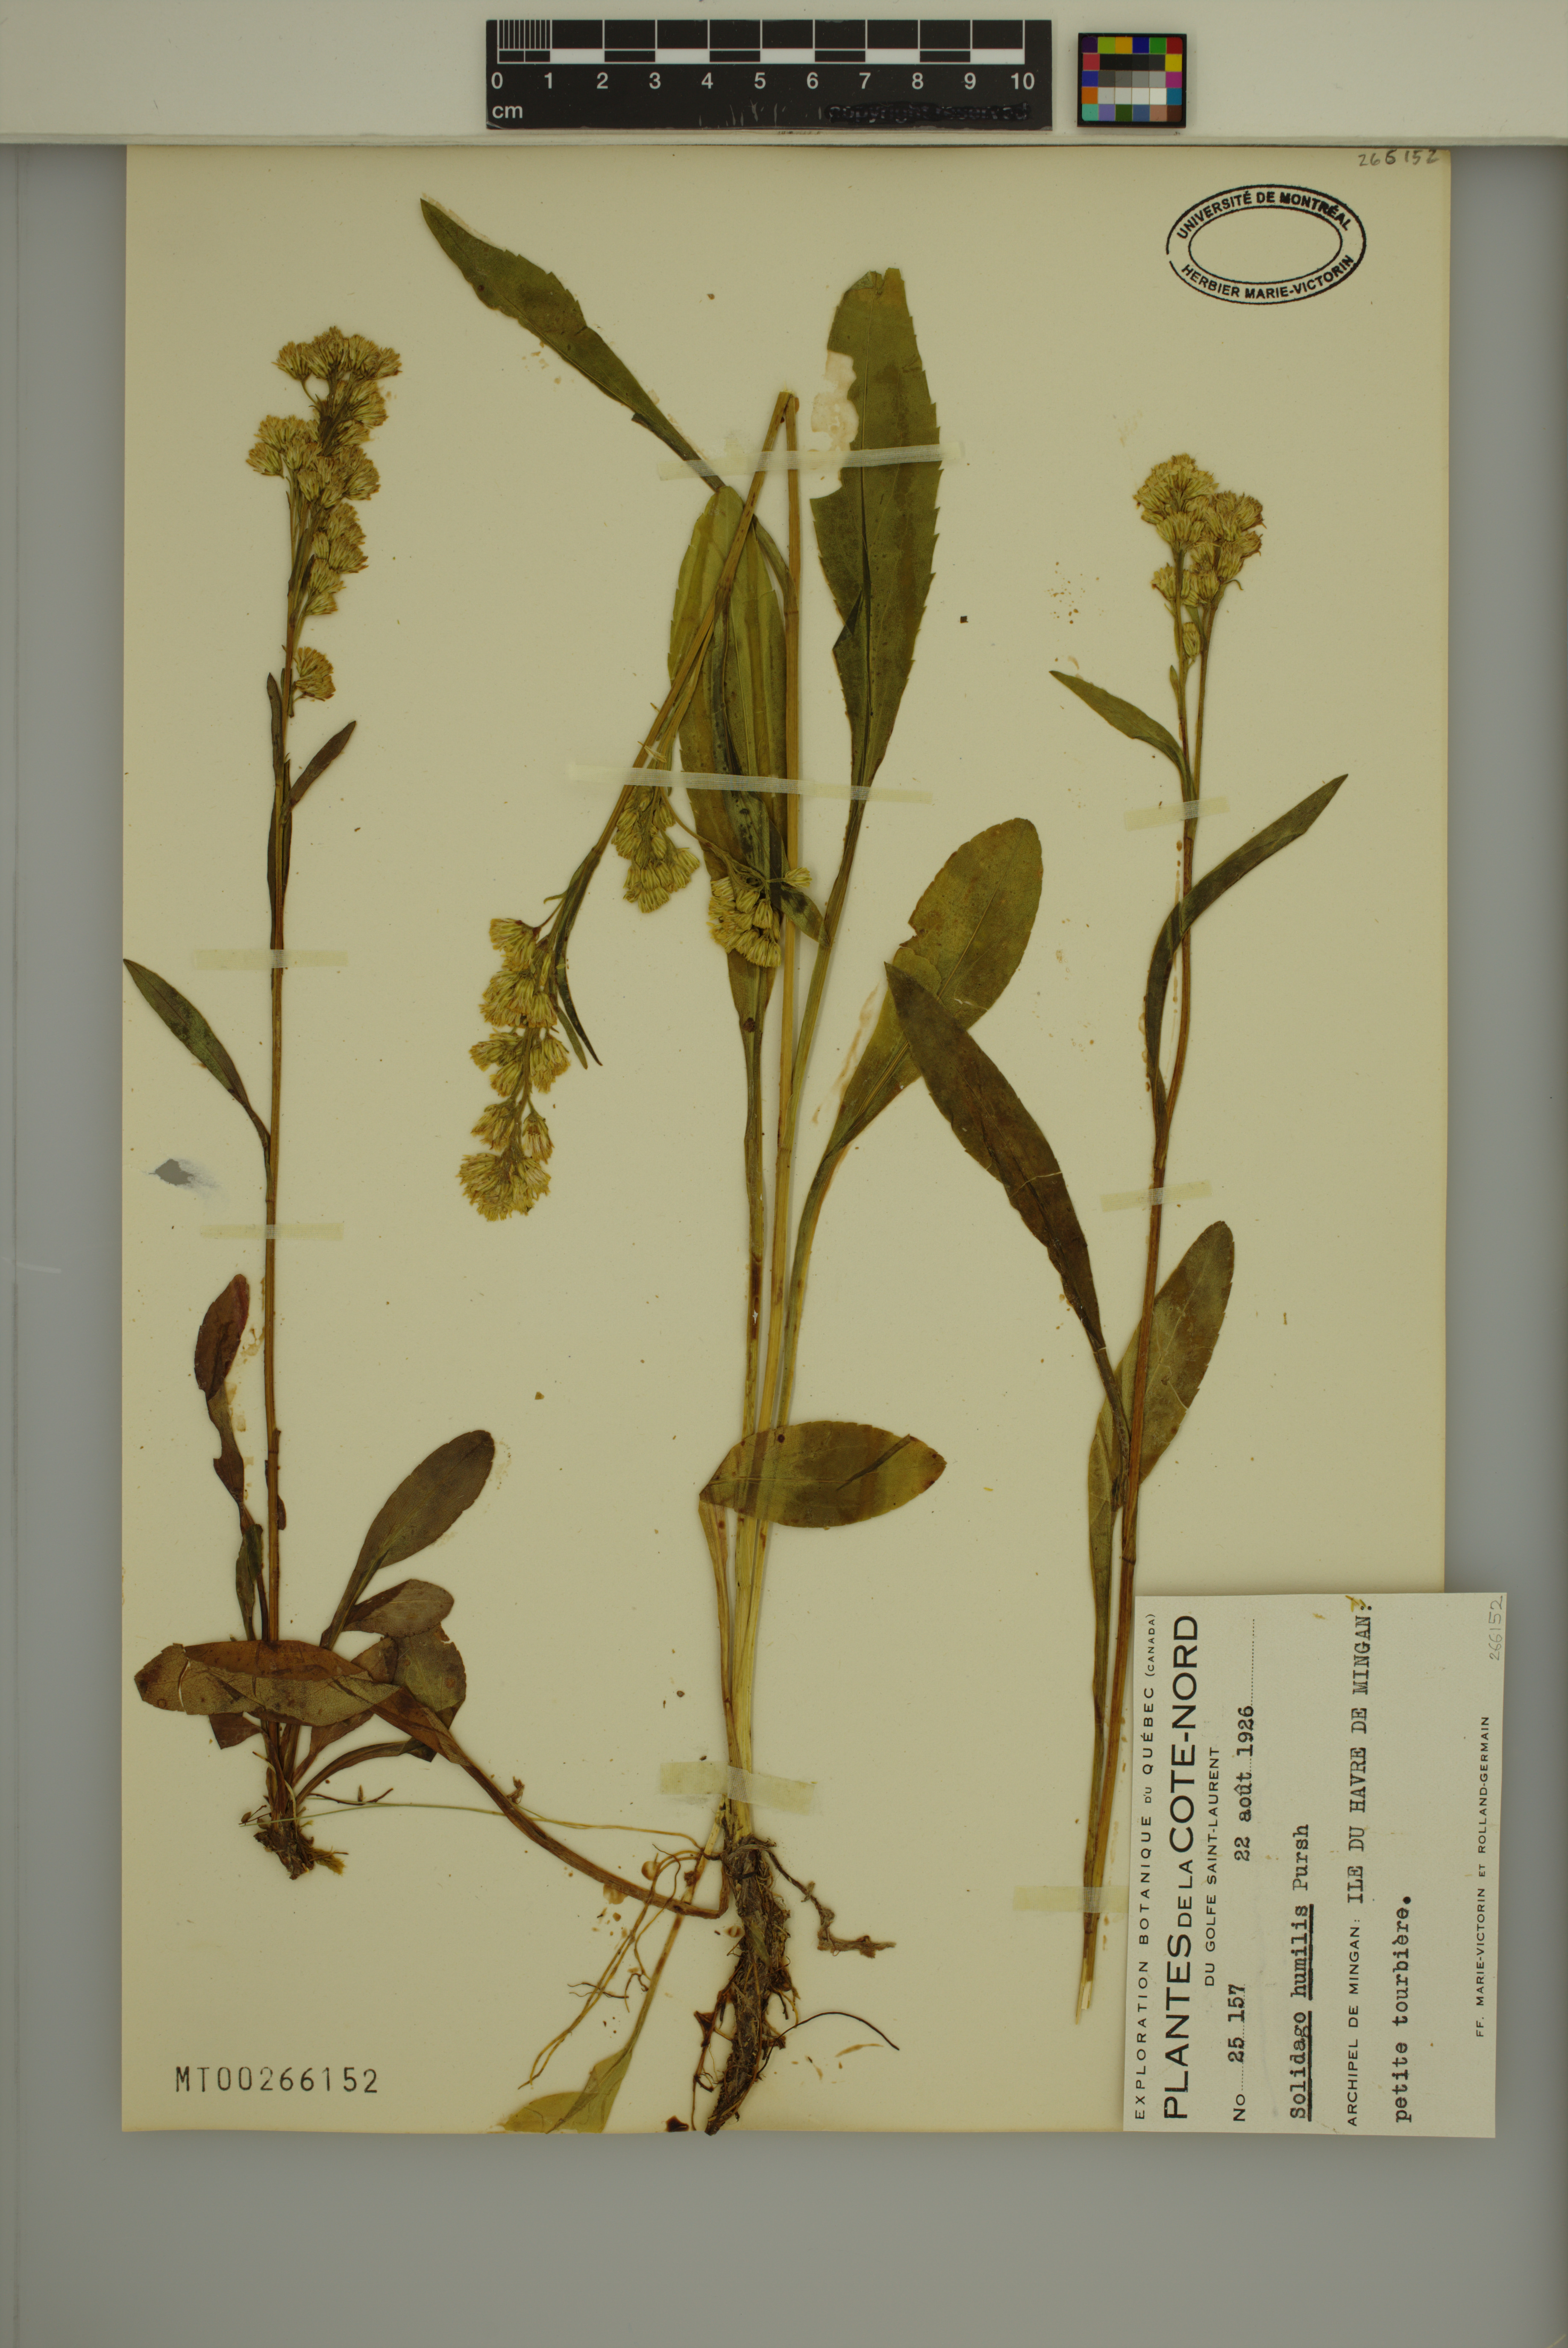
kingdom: Plantae
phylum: Tracheophyta
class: Magnoliopsida
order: Asterales
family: Asteraceae
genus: Solidago
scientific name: Solidago uliginosa
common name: Bog goldenrod
